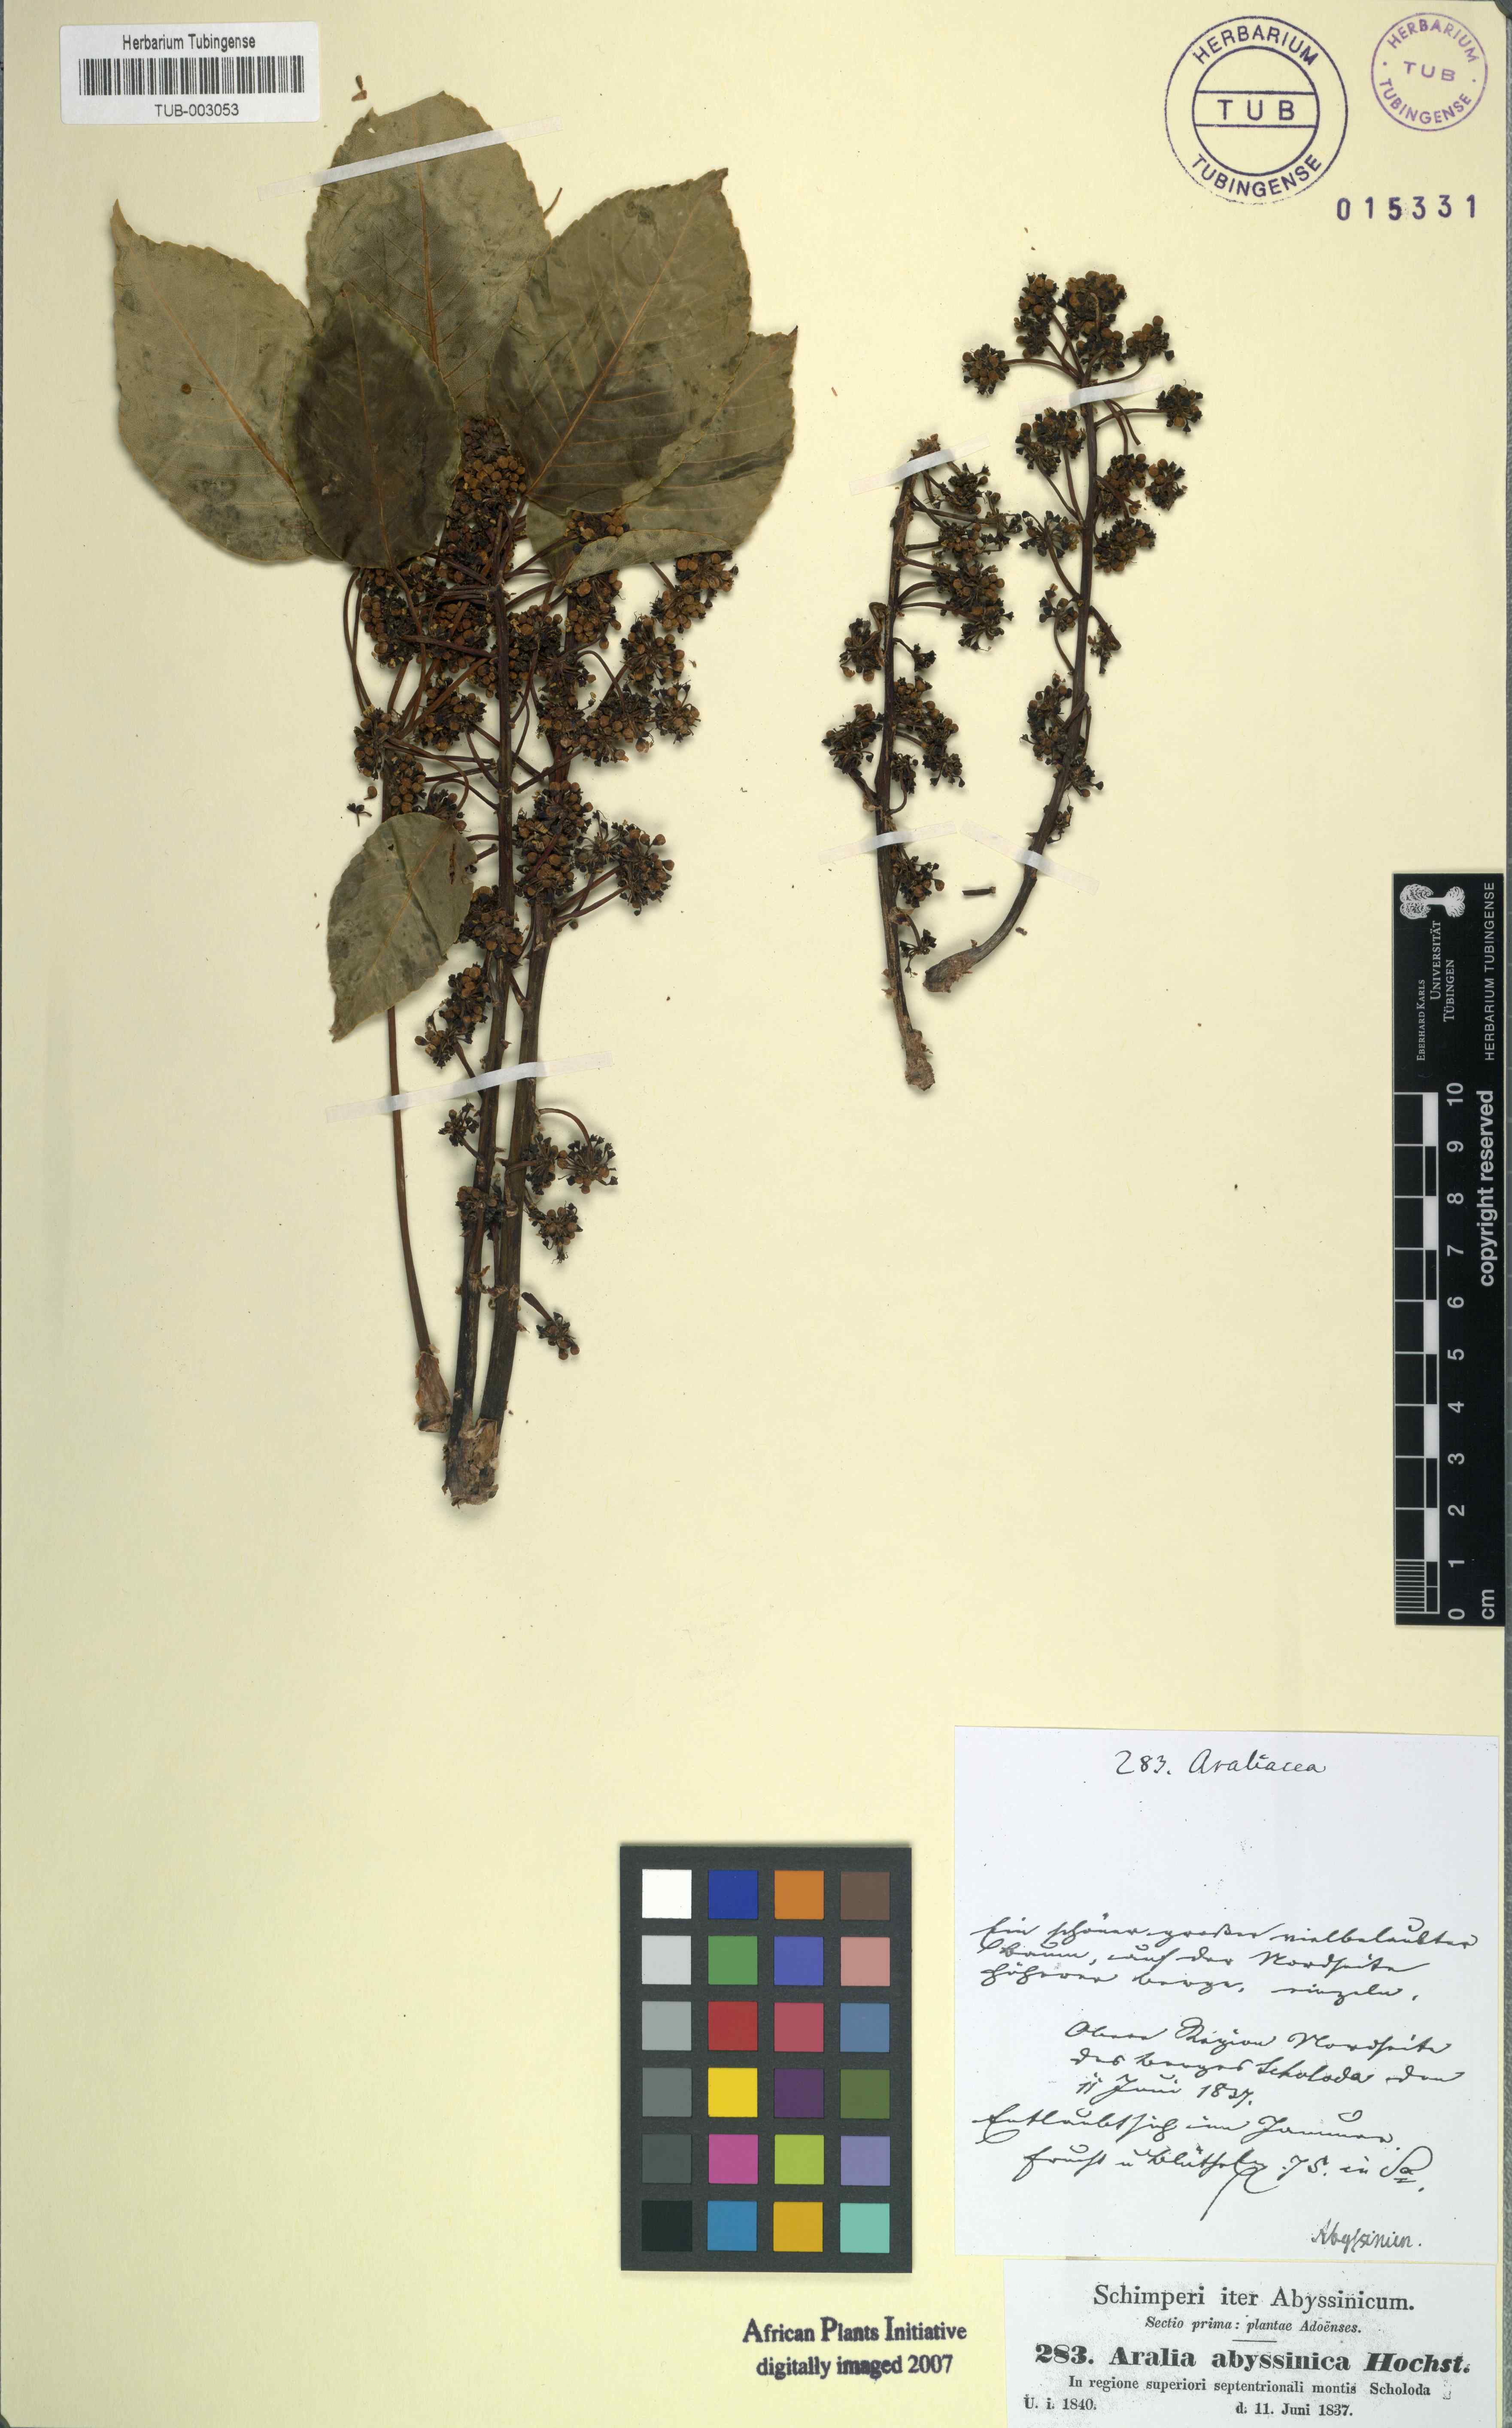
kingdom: Plantae
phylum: Tracheophyta
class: Magnoliopsida
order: Apiales
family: Araliaceae
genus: Heptapleurum
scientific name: Heptapleurum abyssinicum
